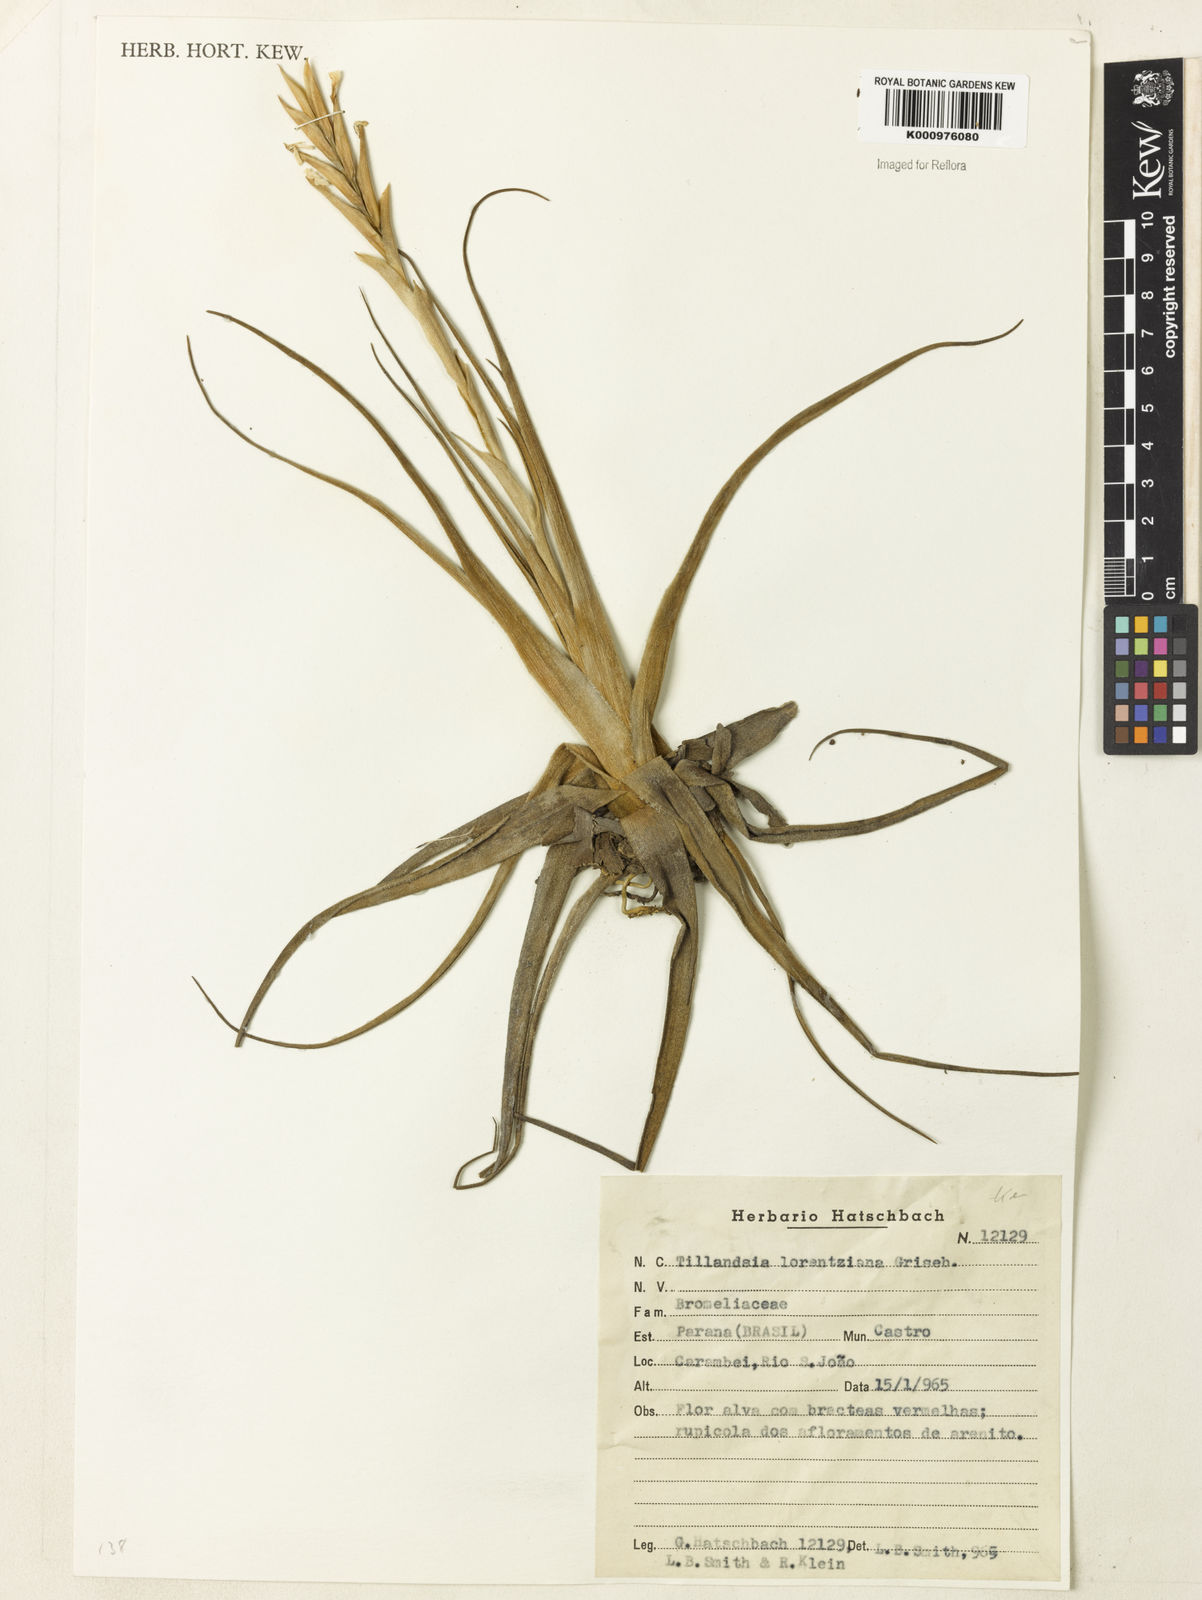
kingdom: Plantae
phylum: Tracheophyta
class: Liliopsida
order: Poales
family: Bromeliaceae
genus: Tillandsia
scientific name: Tillandsia lorentziana
